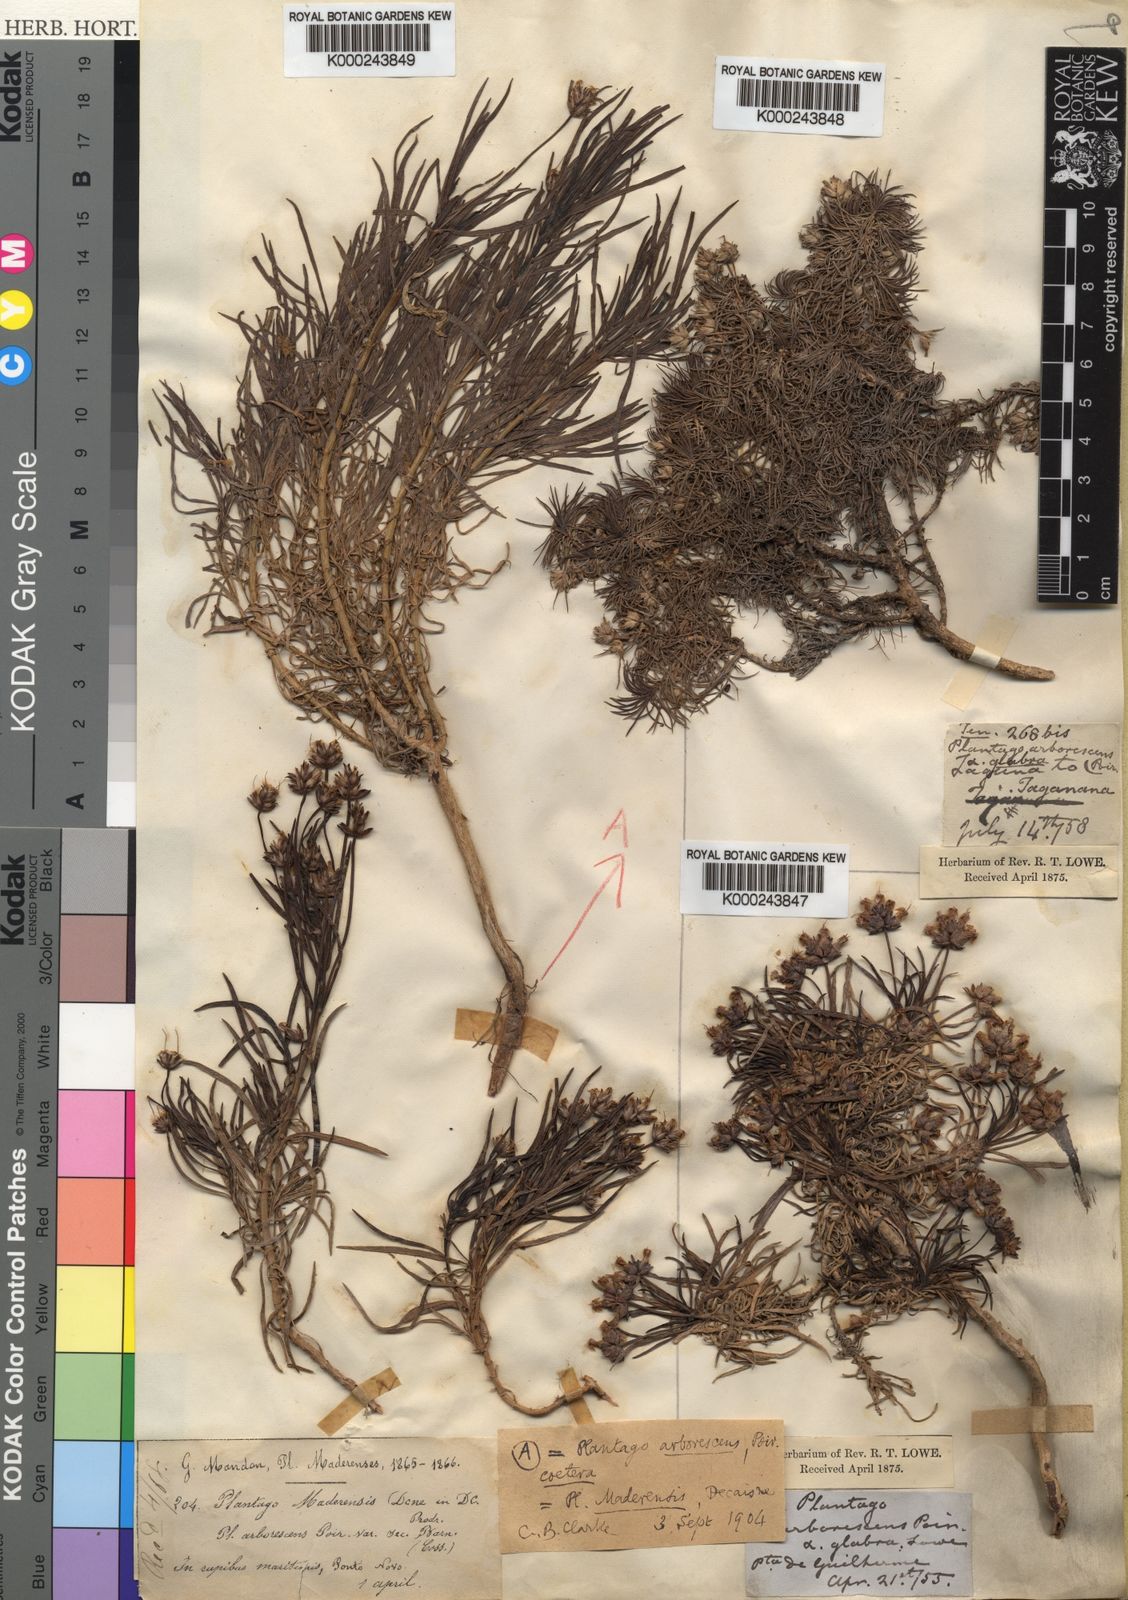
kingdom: Plantae
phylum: Tracheophyta
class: Magnoliopsida
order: Lamiales
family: Plantaginaceae
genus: Plantago
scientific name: Plantago arborescens
